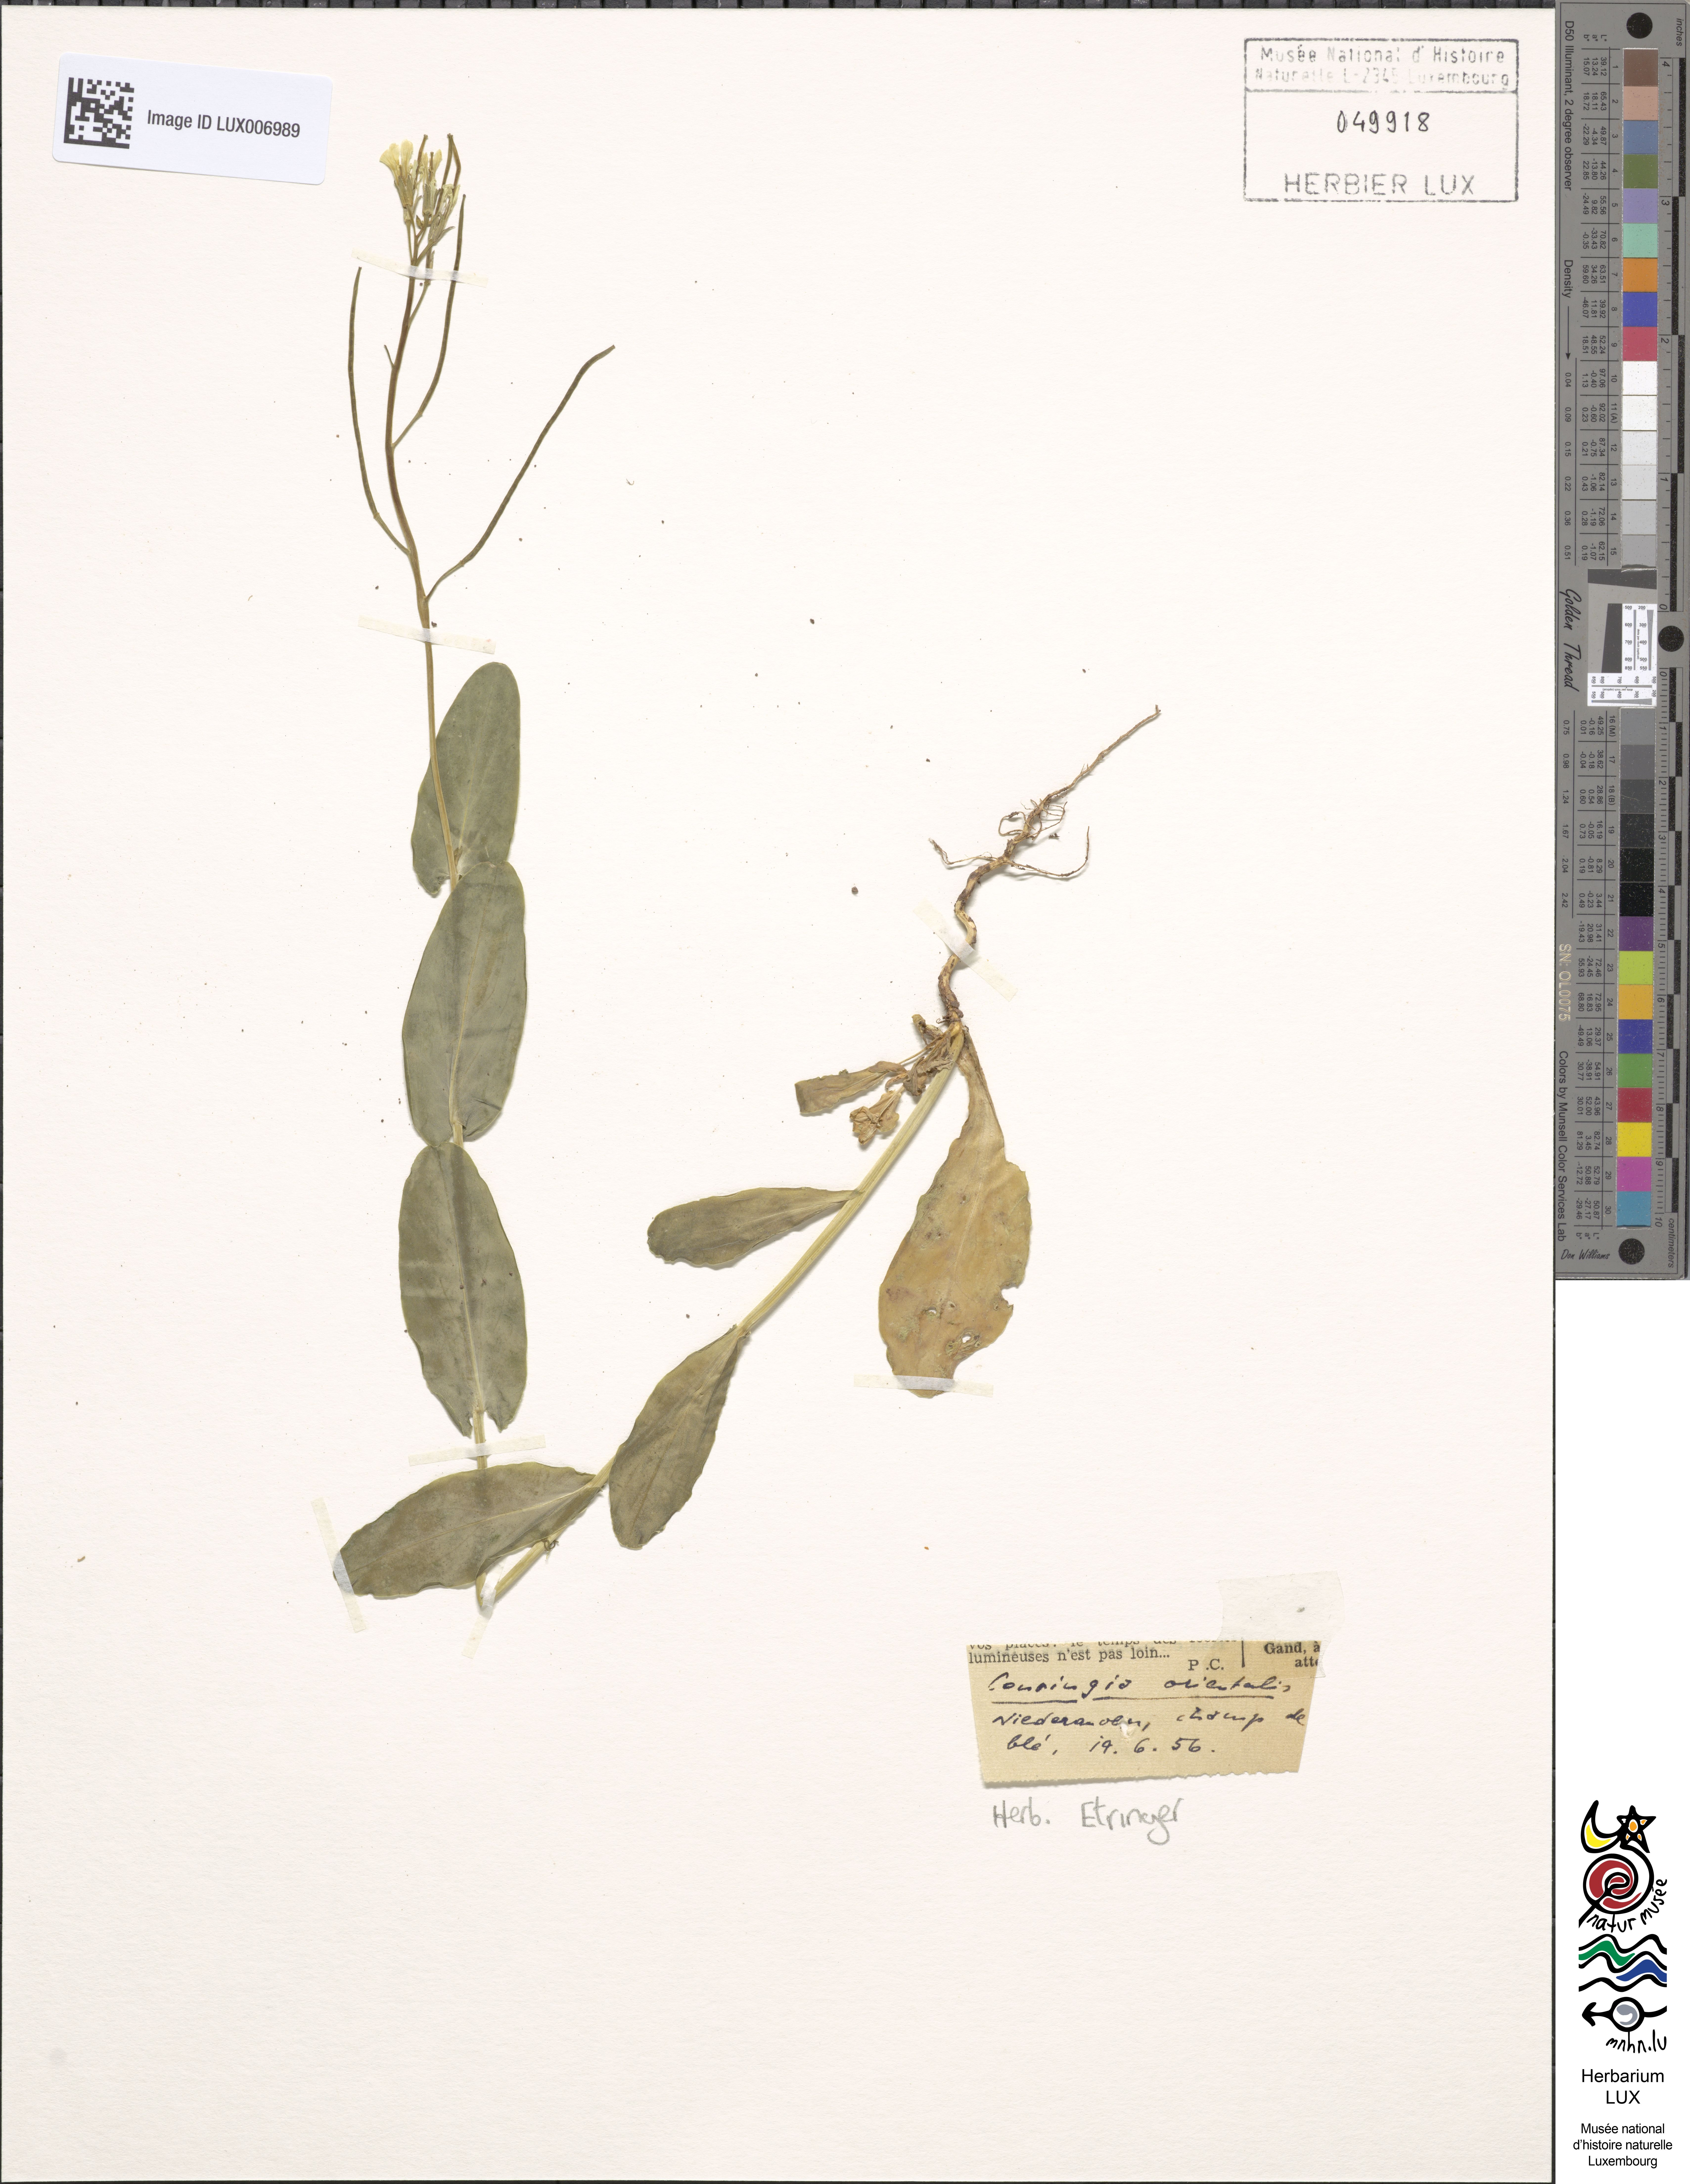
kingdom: Plantae
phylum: Tracheophyta
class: Magnoliopsida
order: Brassicales
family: Brassicaceae
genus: Conringia
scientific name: Conringia orientalis
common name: Hare's ear mustard
